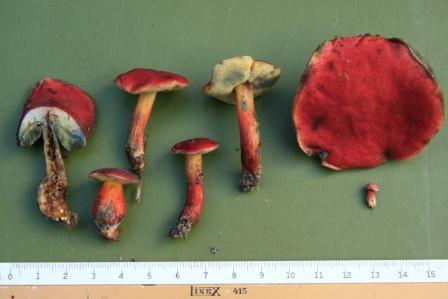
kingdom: Fungi
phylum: Basidiomycota
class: Agaricomycetes
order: Boletales
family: Boletaceae
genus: Hortiboletus
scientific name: Hortiboletus rubellus
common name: blodrød rørhat
